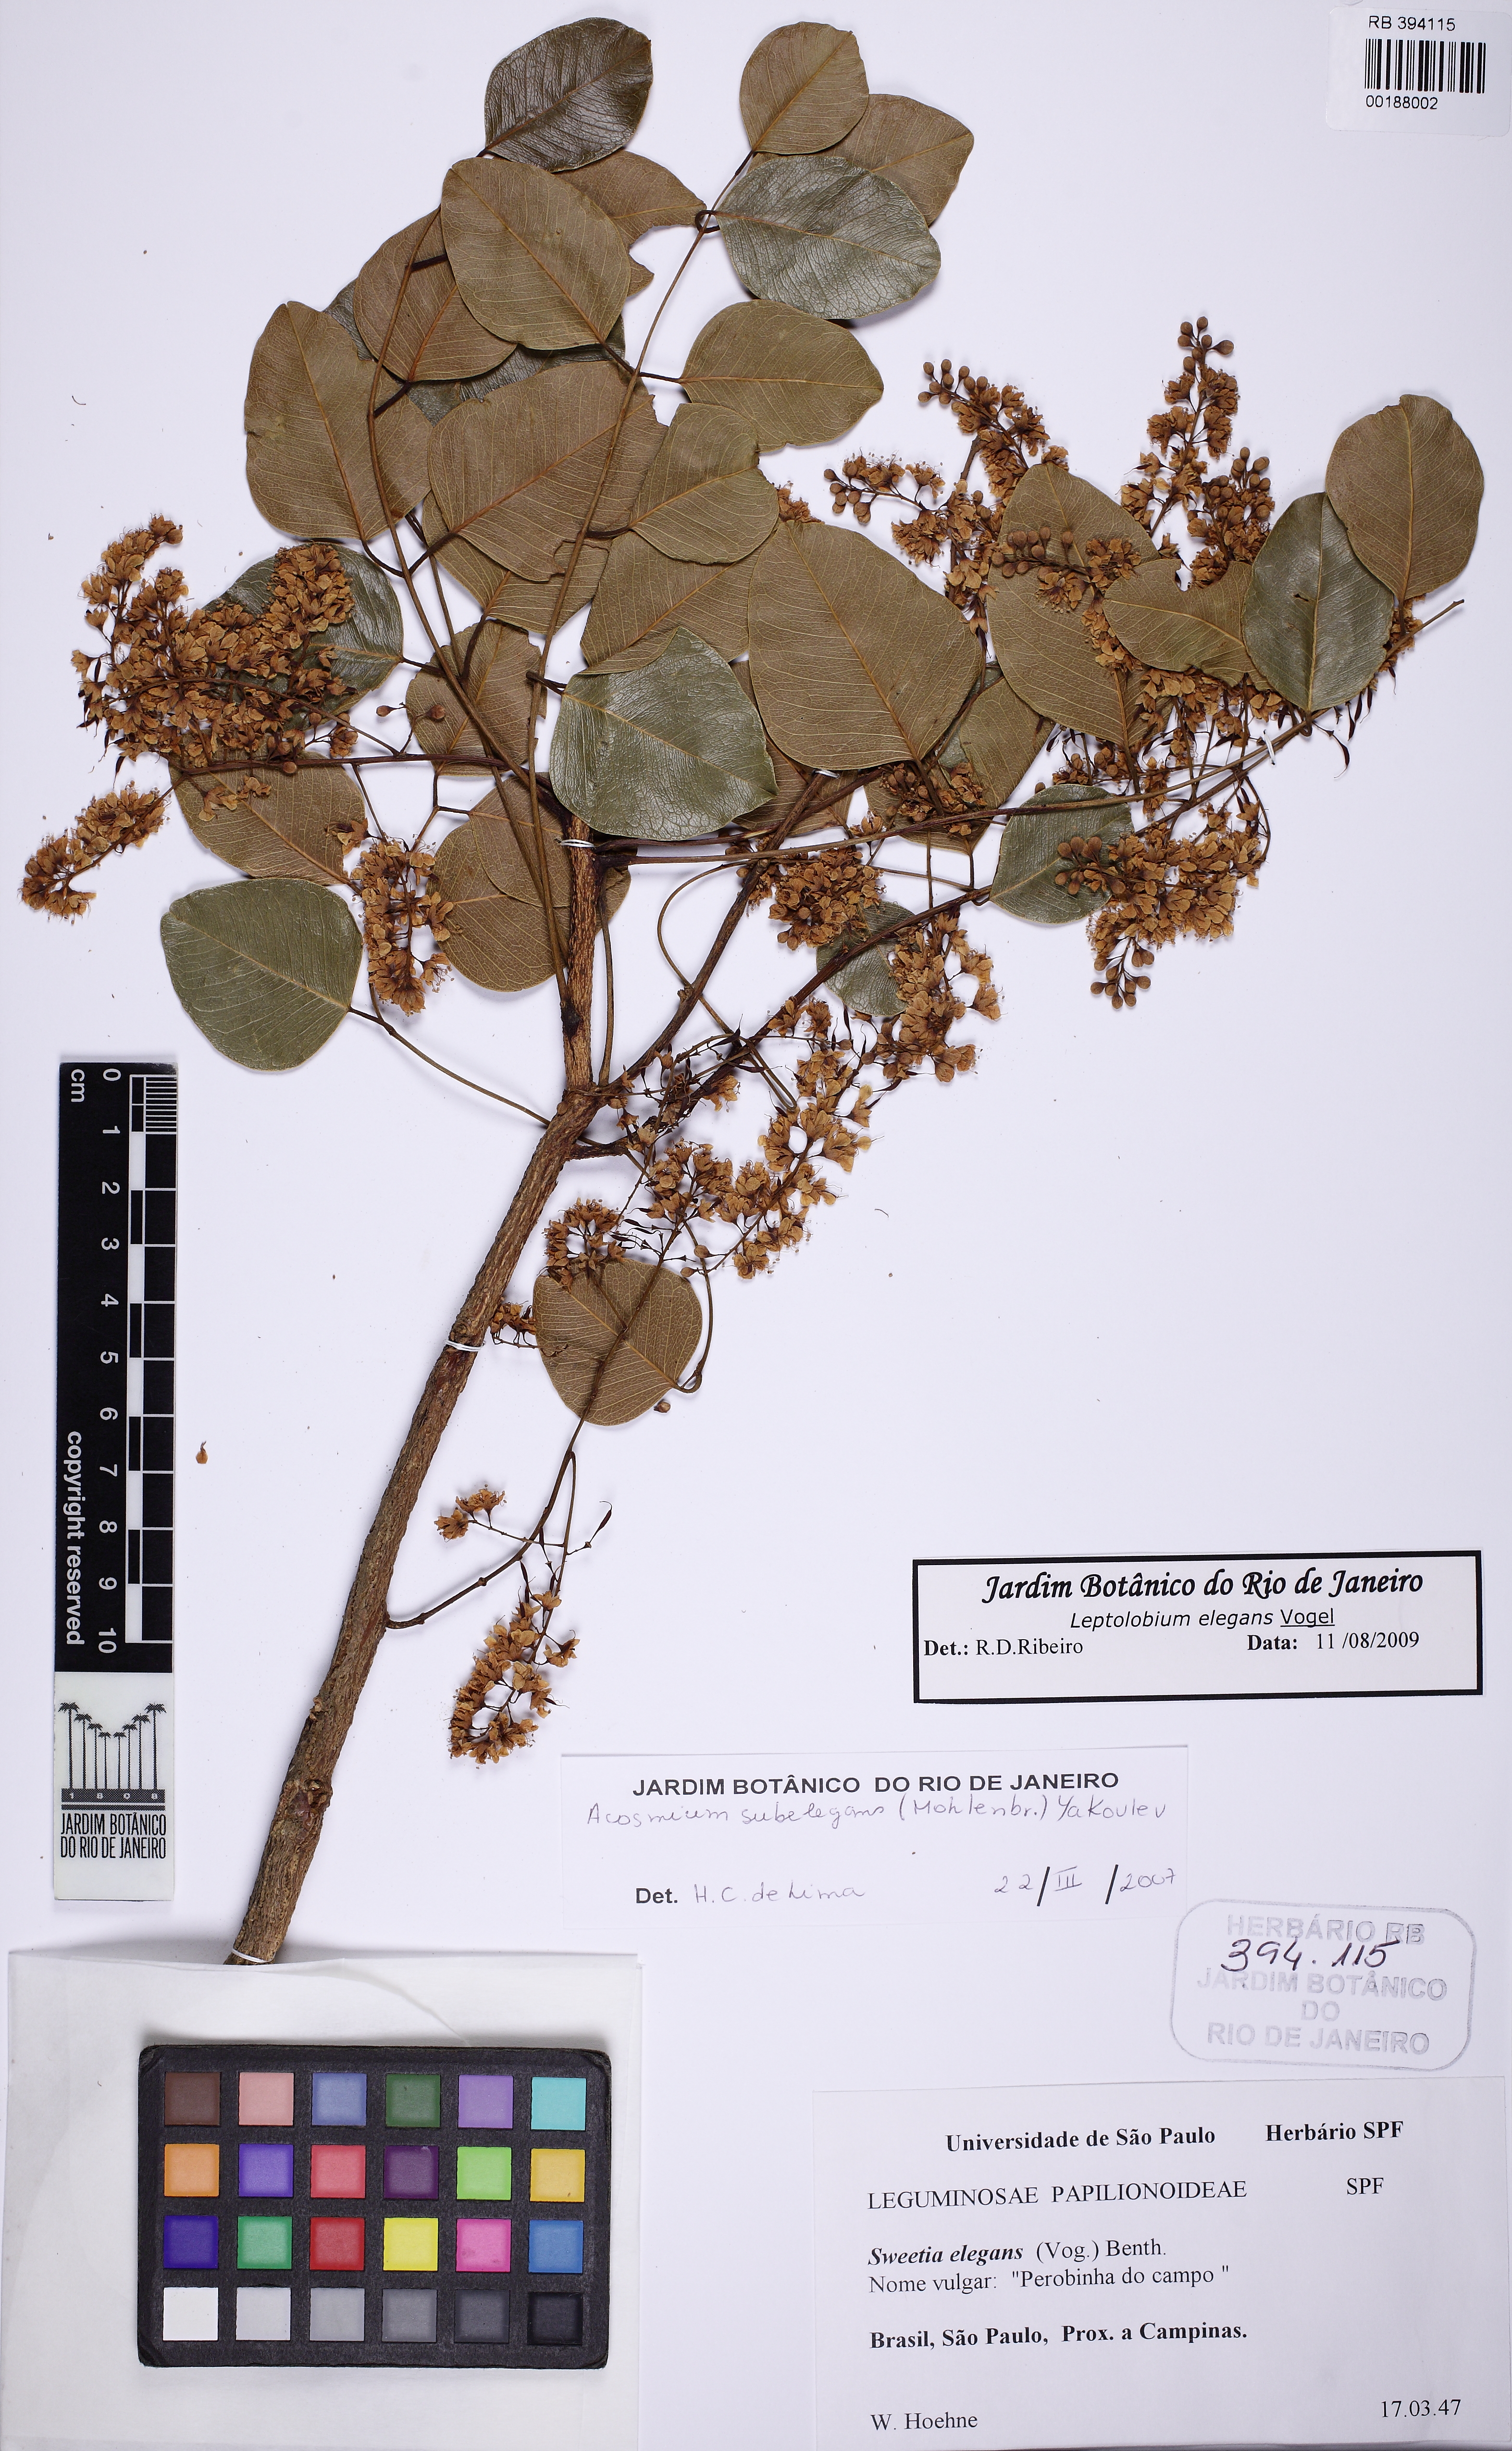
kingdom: Plantae
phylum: Tracheophyta
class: Magnoliopsida
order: Fabales
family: Fabaceae
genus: Leptolobium
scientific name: Leptolobium elegans
